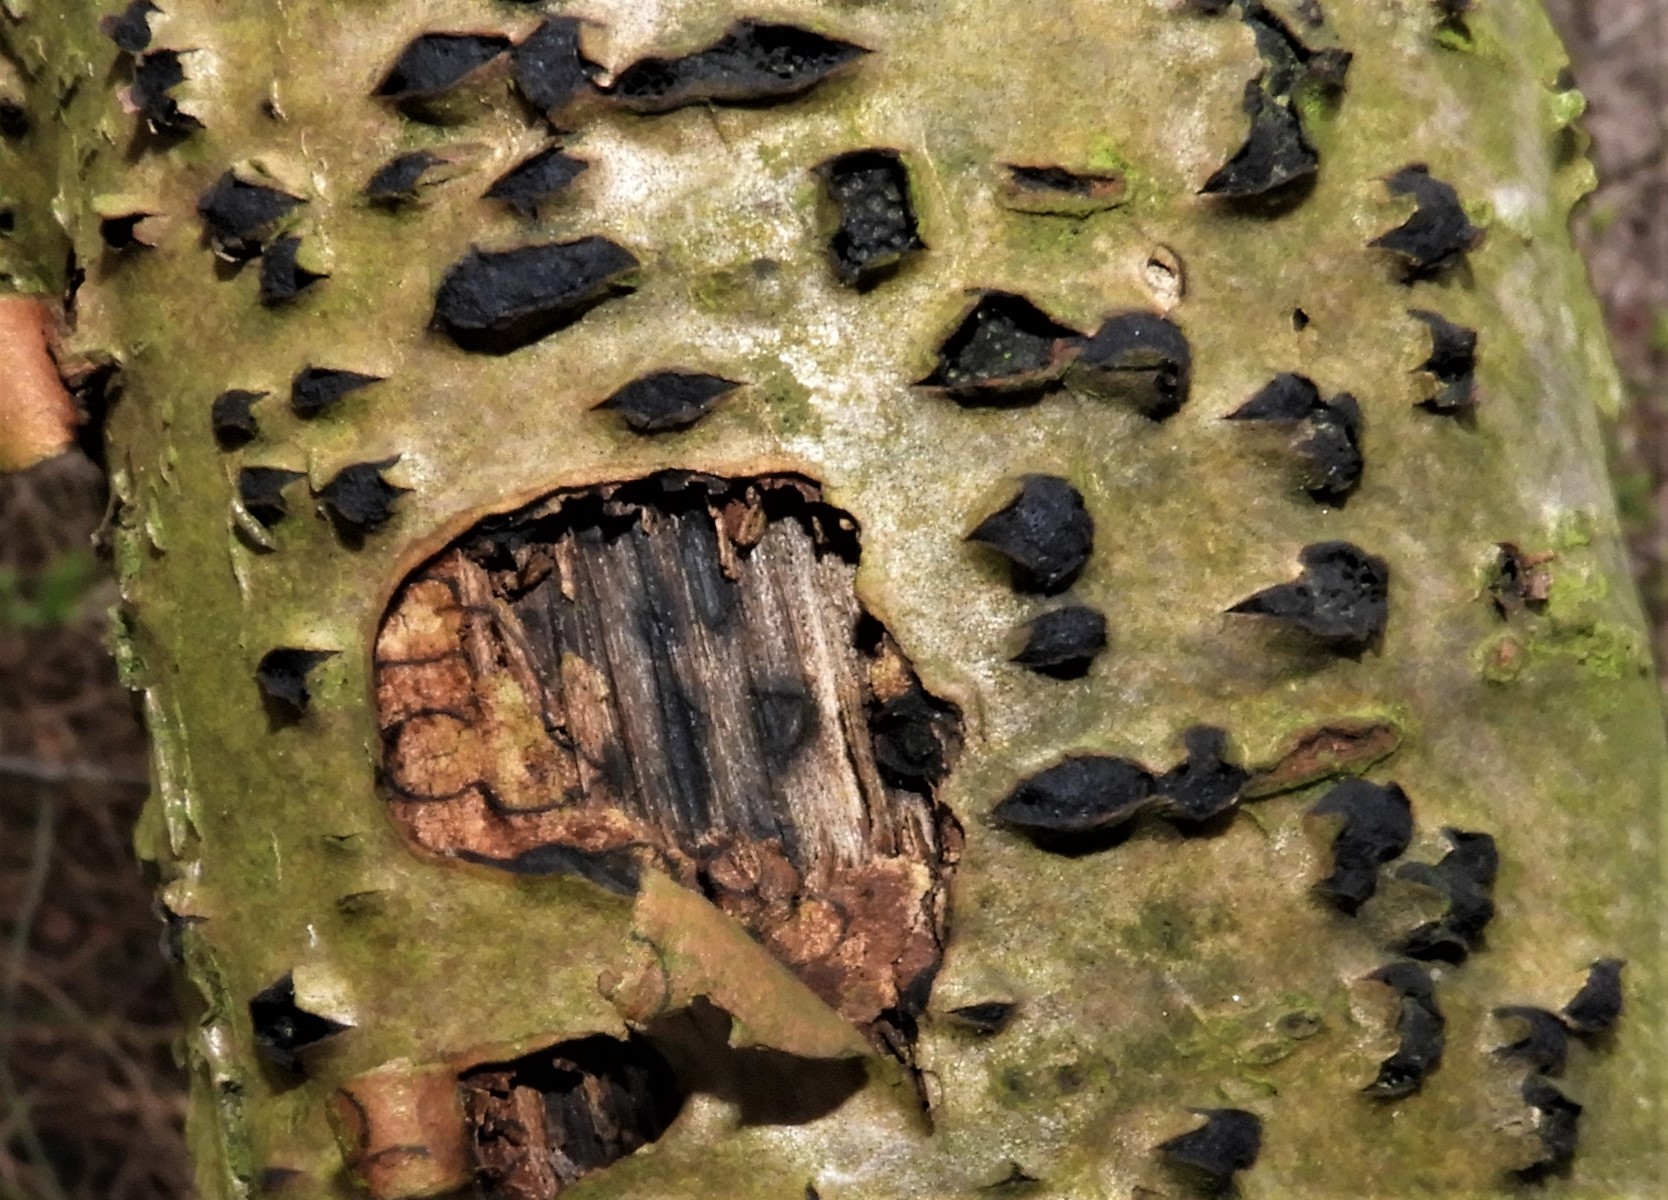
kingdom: Fungi
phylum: Ascomycota
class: Sordariomycetes
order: Xylariales
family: Diatrypaceae
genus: Diatrypella
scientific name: Diatrypella favacea
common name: klemt kulskorpe
